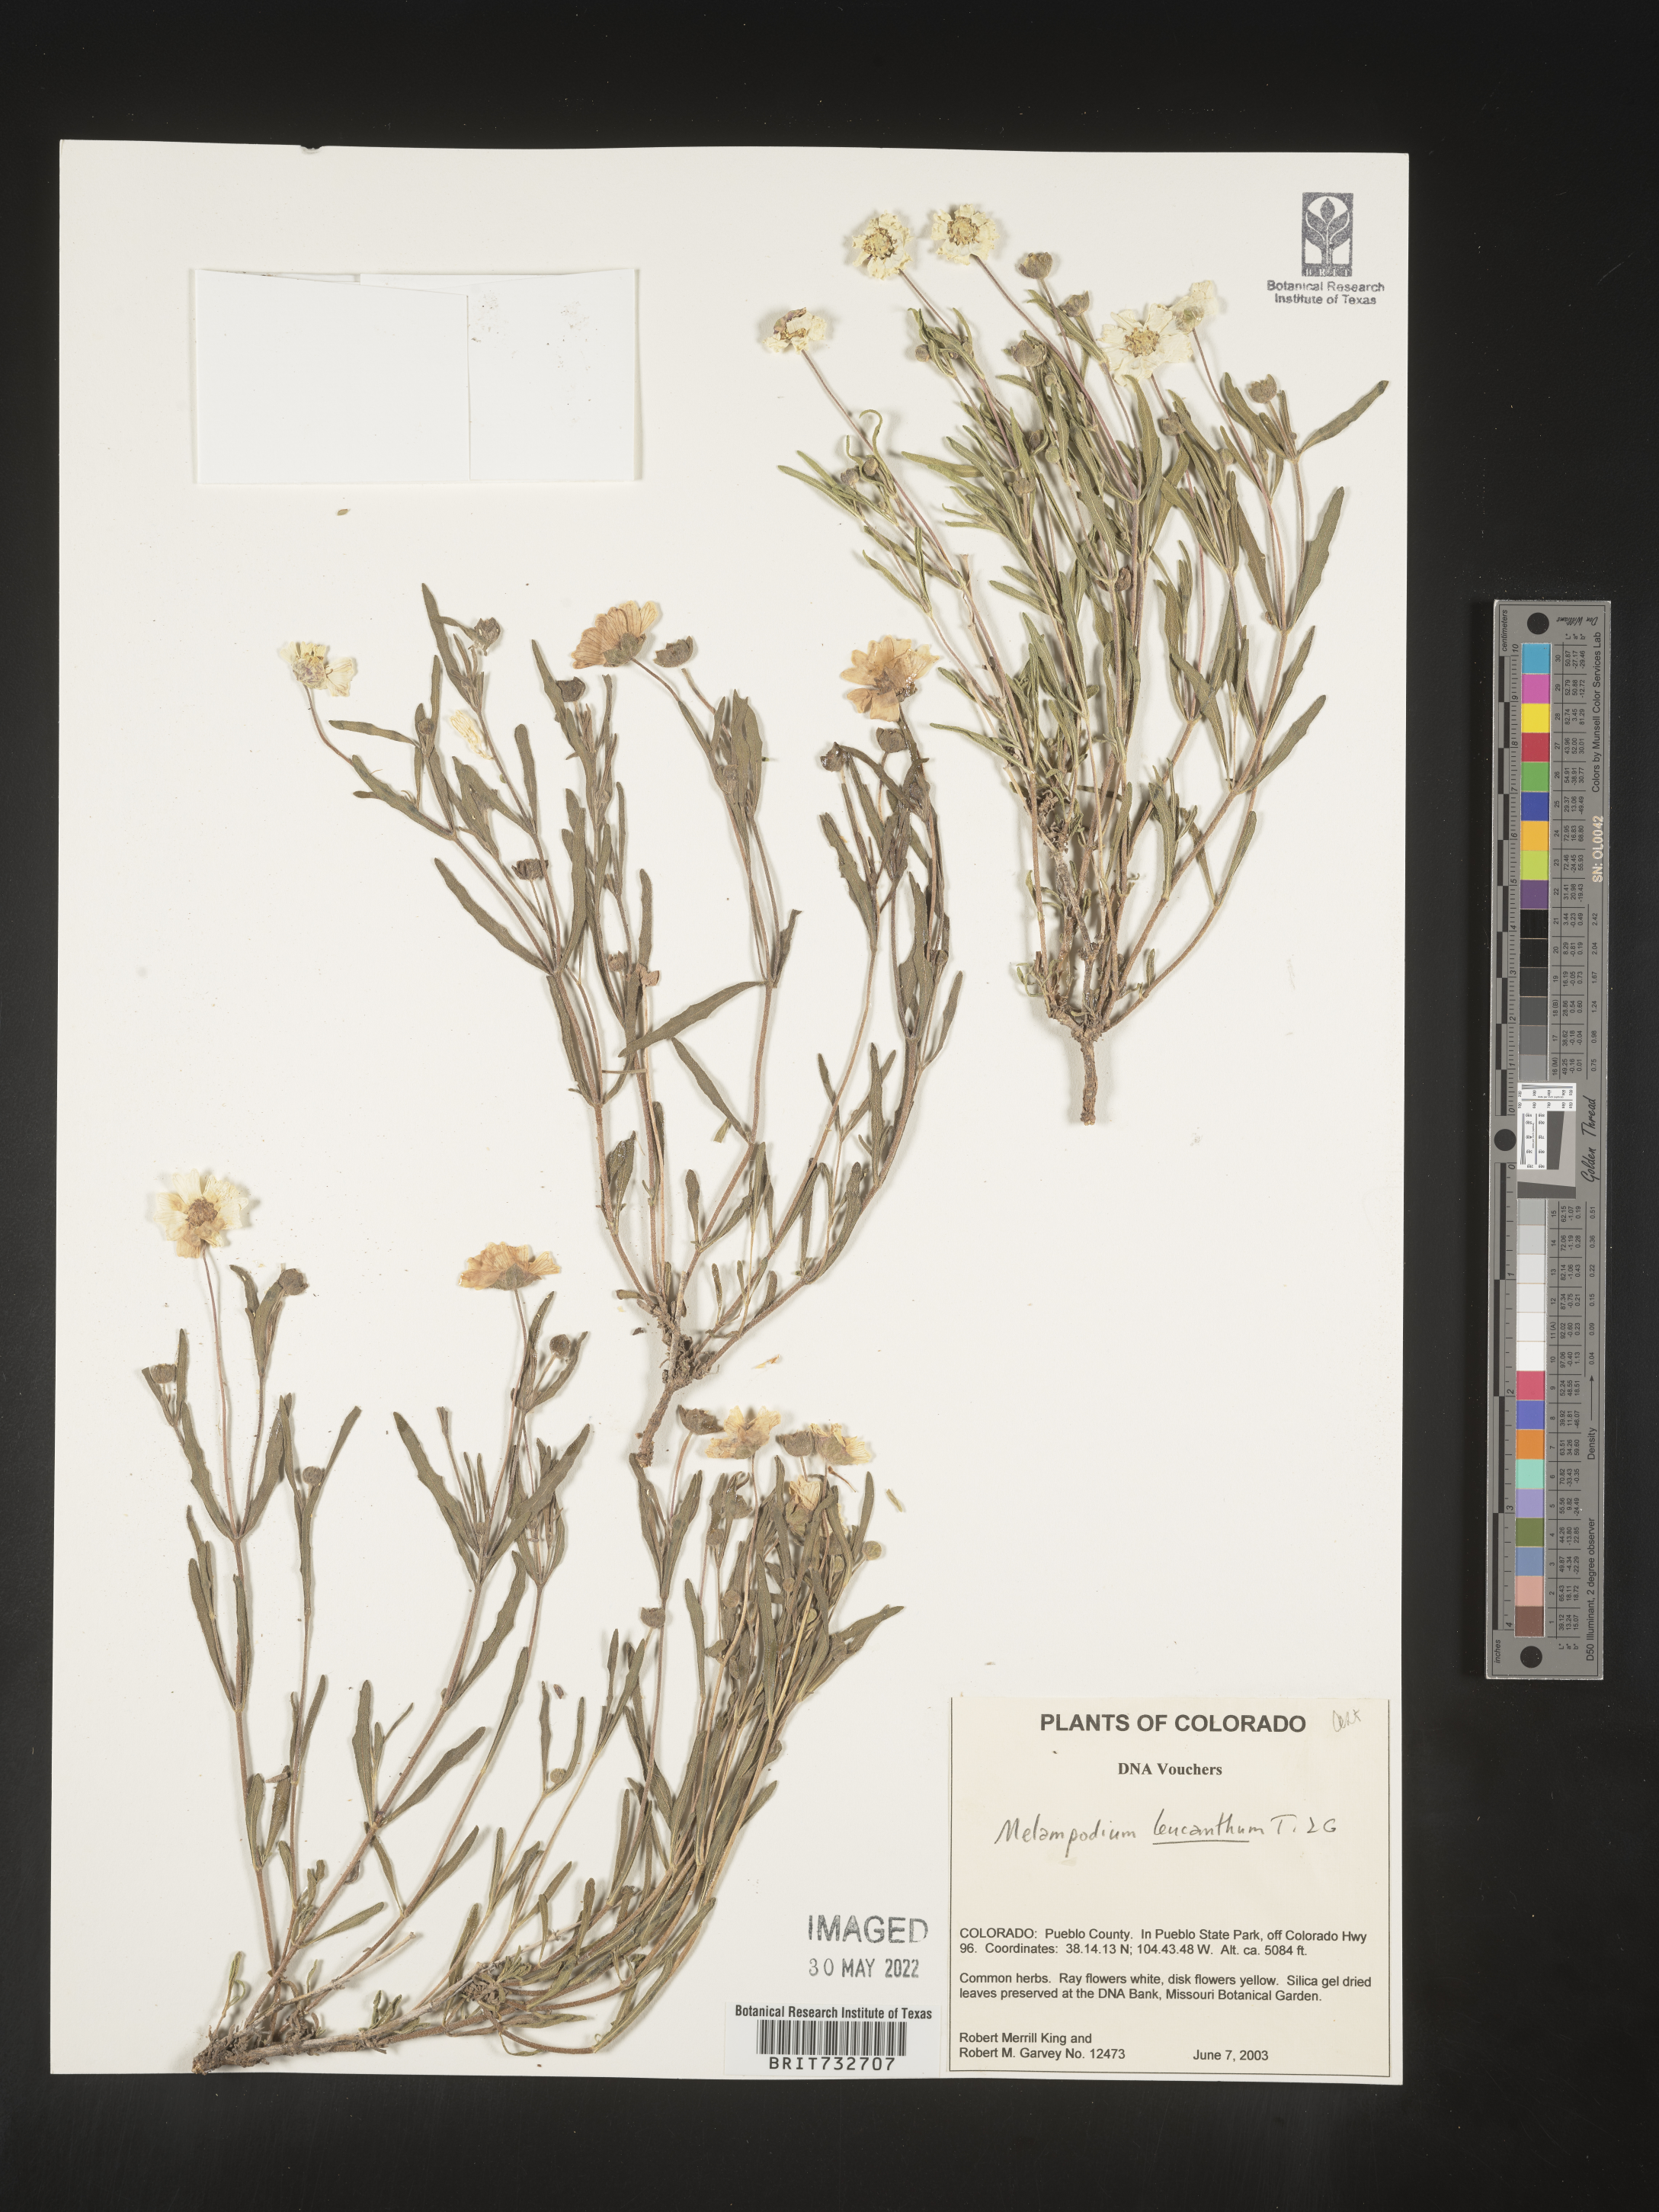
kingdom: Plantae
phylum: Tracheophyta
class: Magnoliopsida
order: Asterales
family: Asteraceae
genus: Melampodium
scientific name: Melampodium leucanthum
